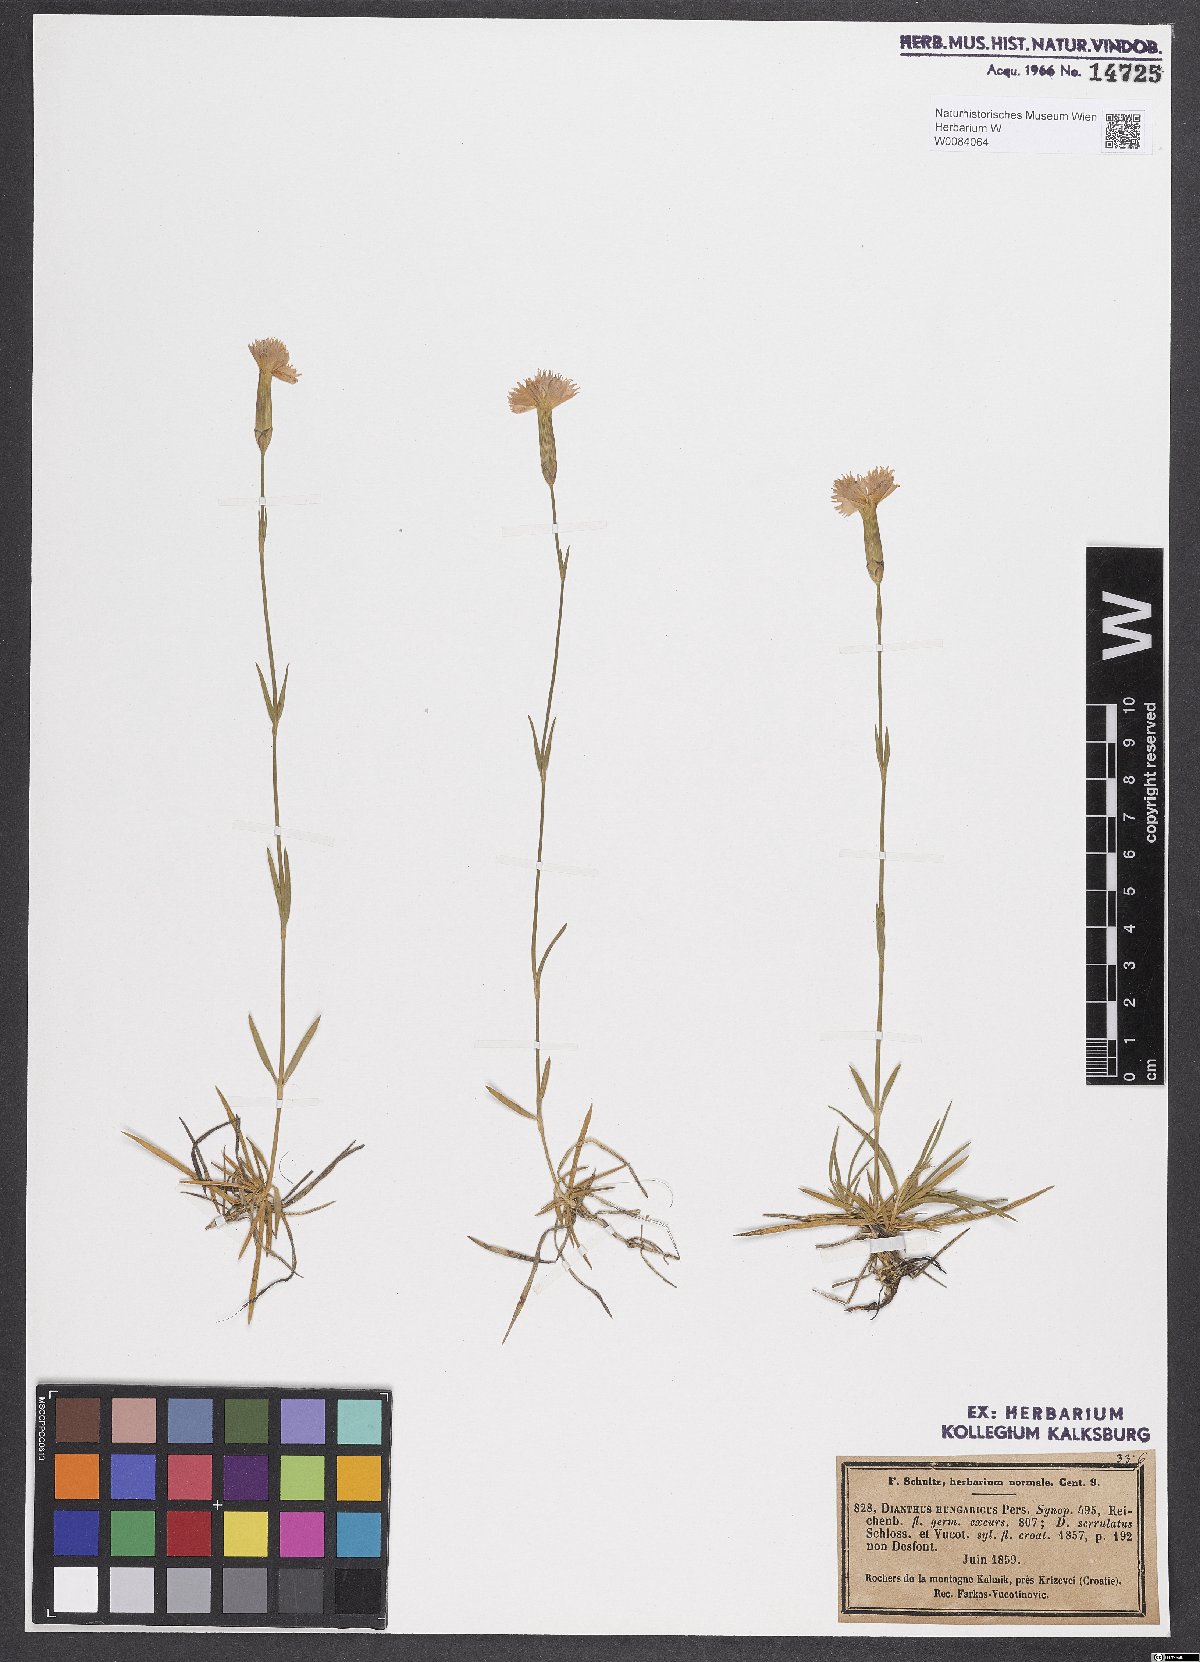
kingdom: Plantae
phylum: Tracheophyta
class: Magnoliopsida
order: Caryophyllales
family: Caryophyllaceae
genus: Dianthus
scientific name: Dianthus plumarius
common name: Pink
